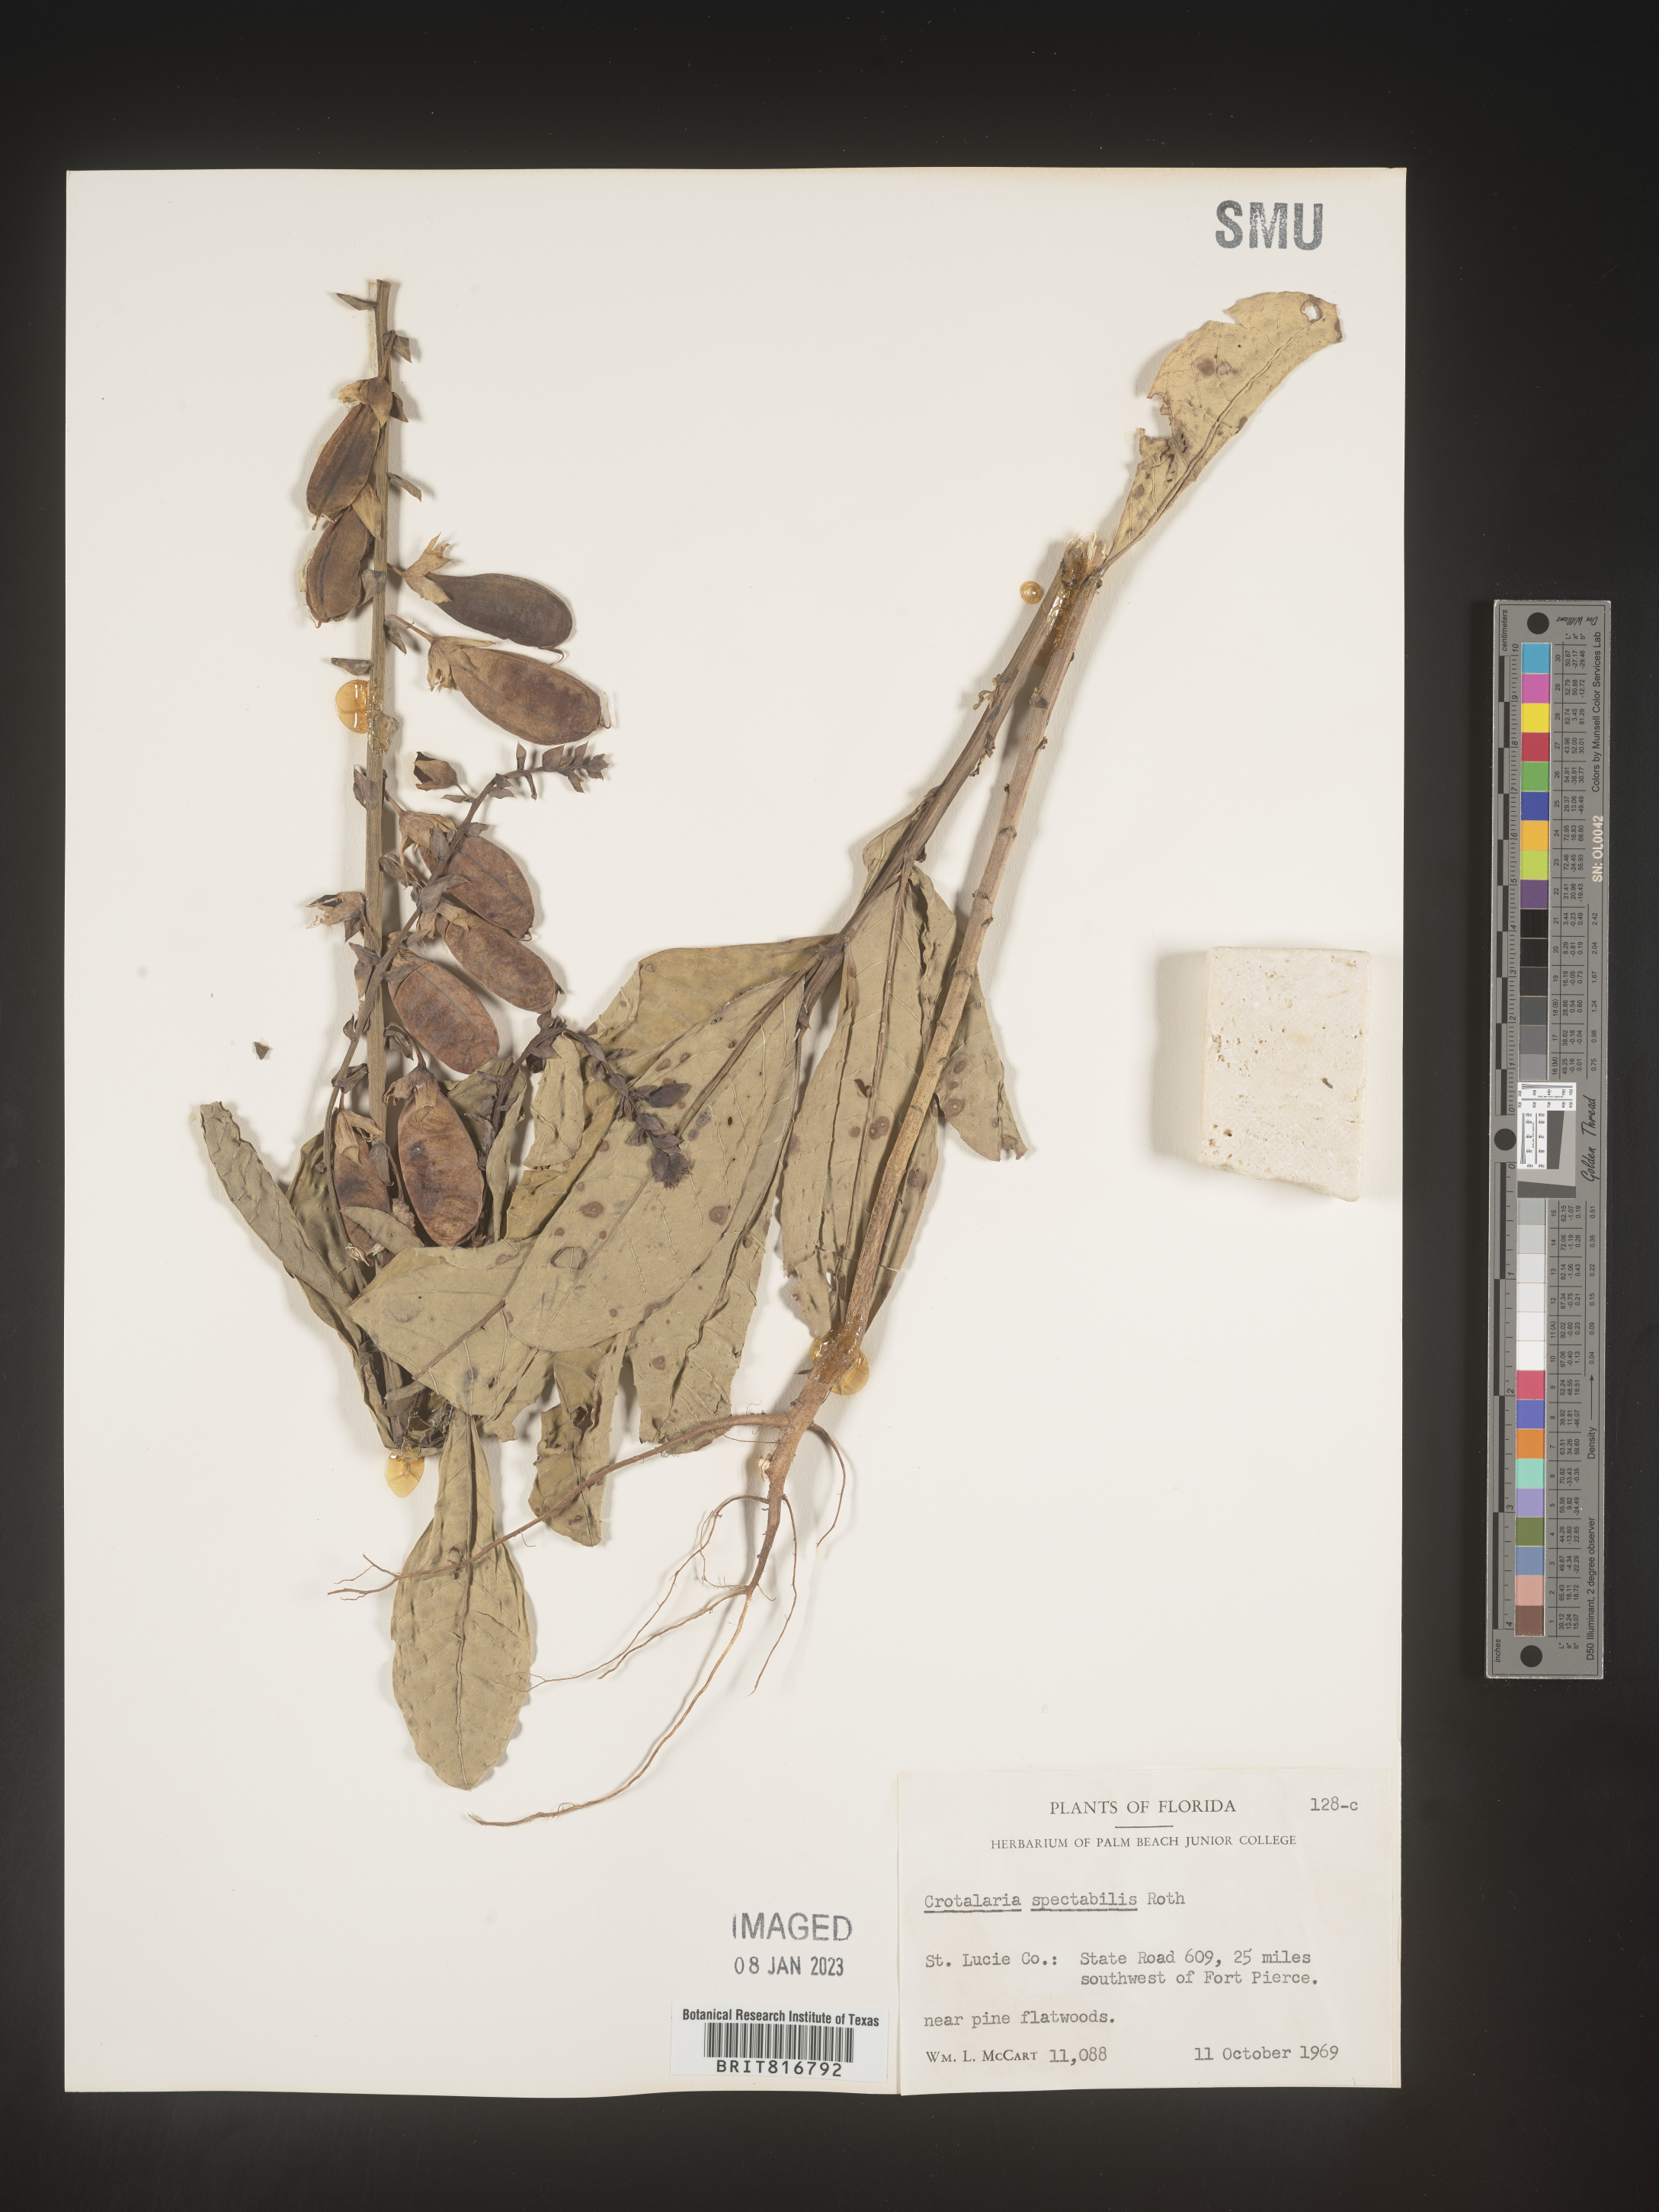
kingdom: Plantae
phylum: Tracheophyta
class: Magnoliopsida
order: Fabales
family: Fabaceae
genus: Crotalaria
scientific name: Crotalaria spectabilis
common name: Showy rattlebox
